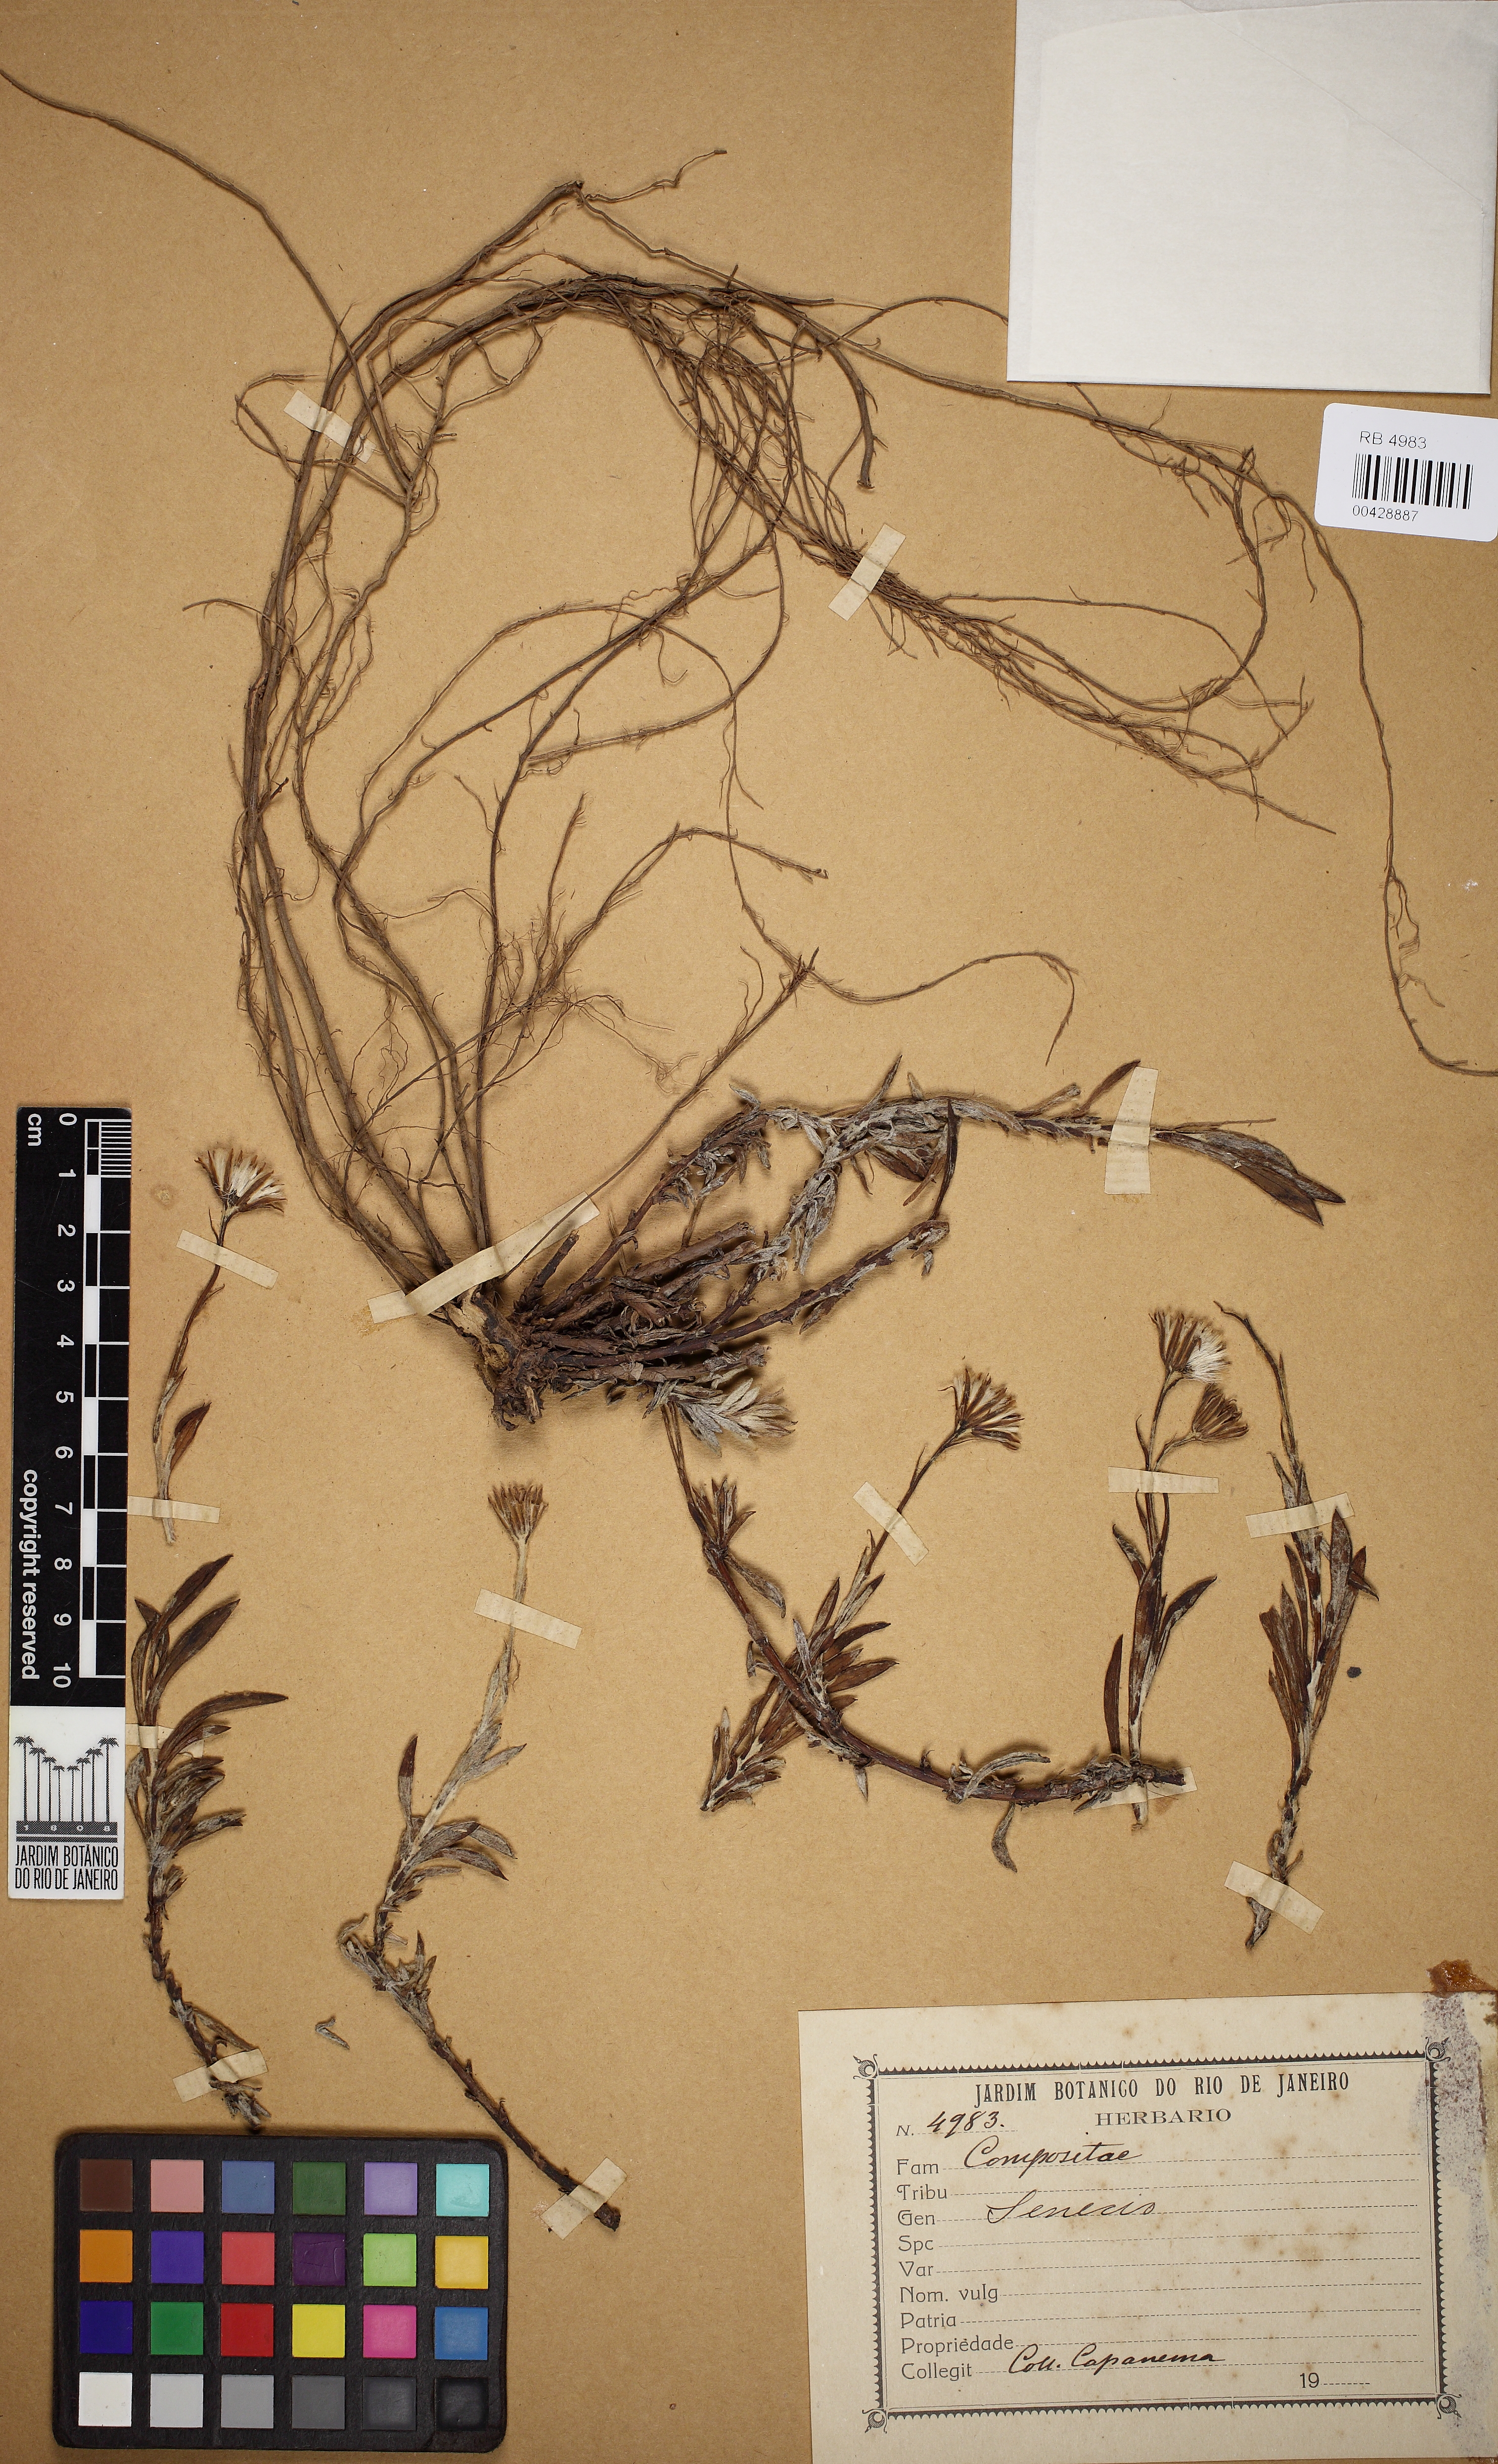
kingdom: Plantae
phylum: Tracheophyta
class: Magnoliopsida
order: Asterales
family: Asteraceae
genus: Senecio
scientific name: Senecio
